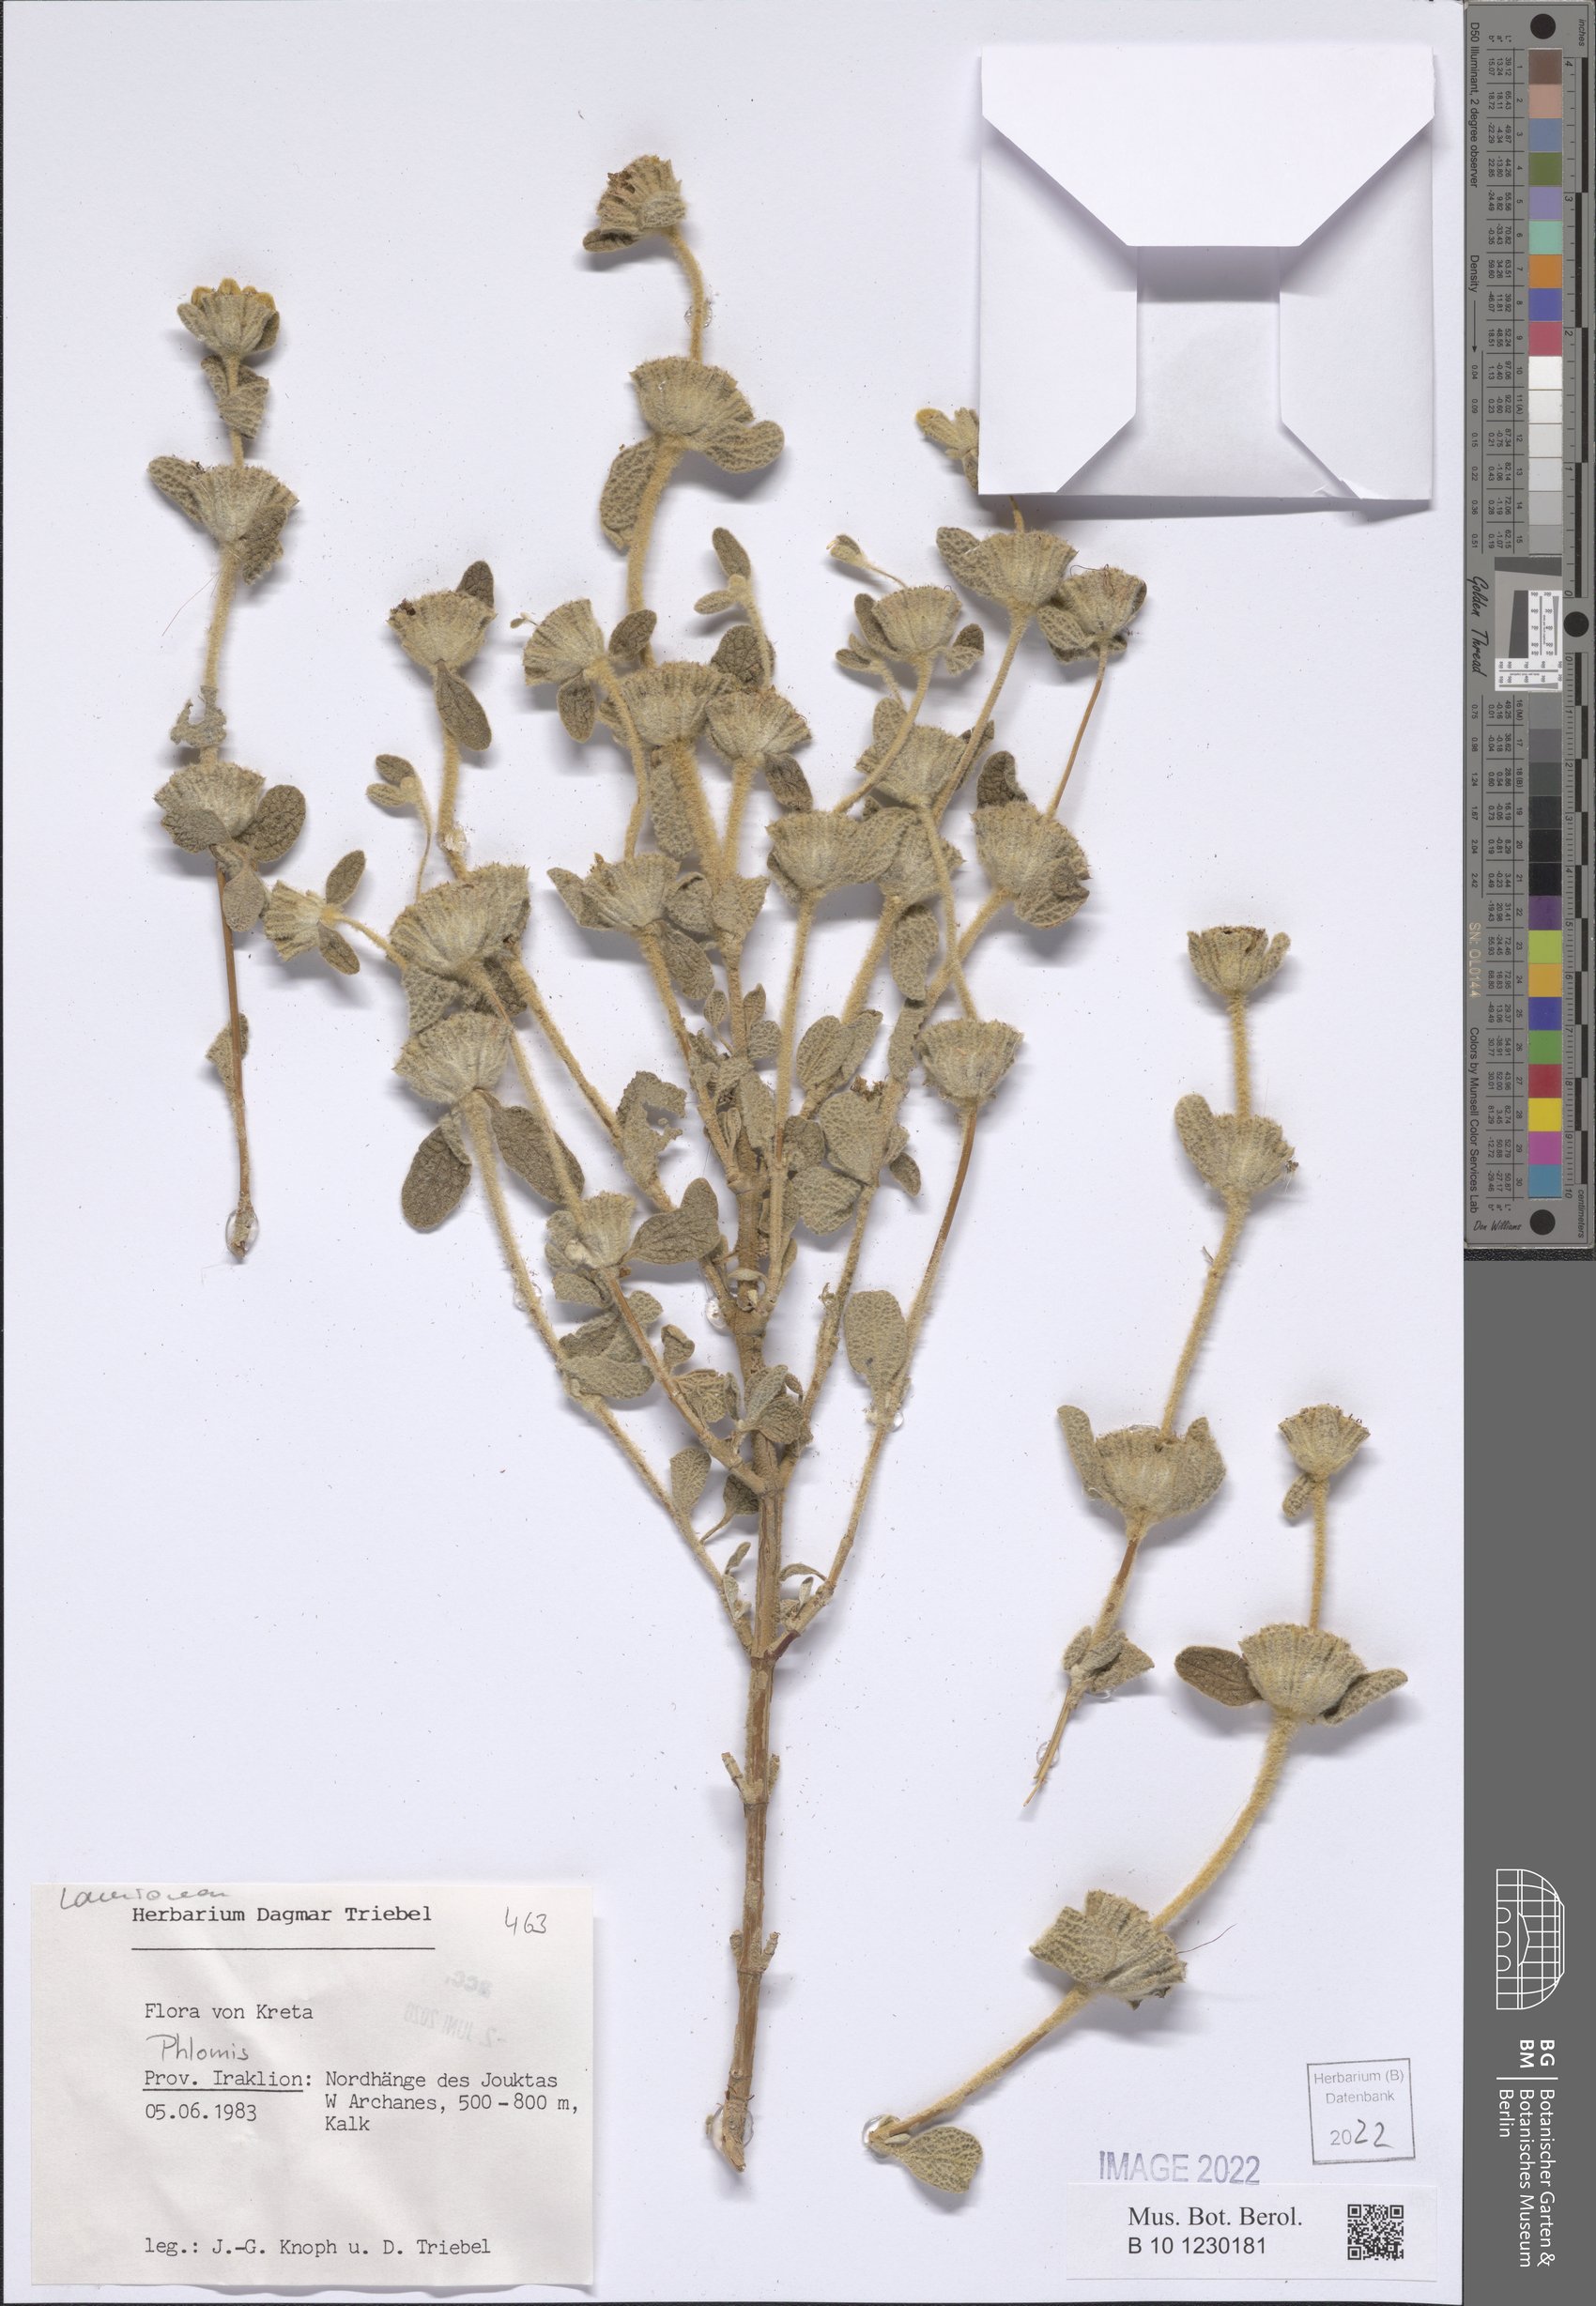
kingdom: Plantae
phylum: Tracheophyta
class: Magnoliopsida
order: Lamiales
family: Lamiaceae
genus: Phlomis
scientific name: Phlomis
